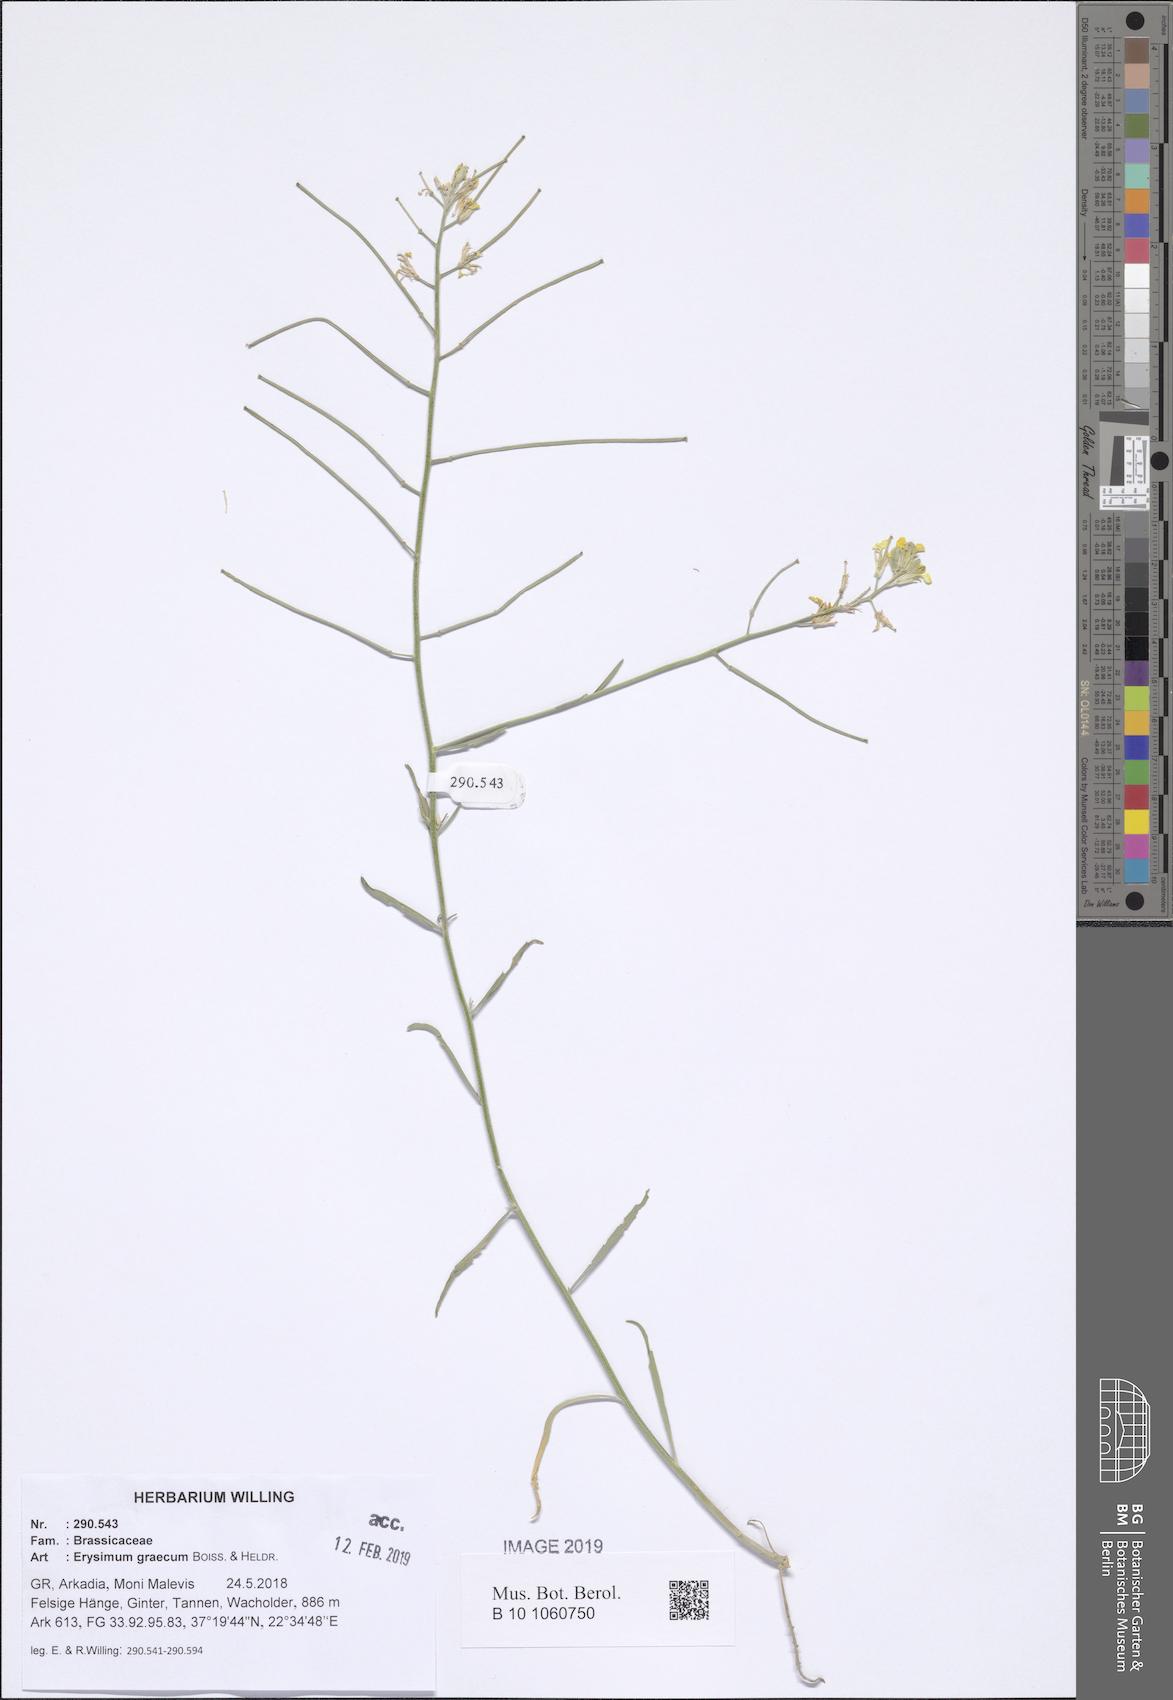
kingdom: Plantae
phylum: Tracheophyta
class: Magnoliopsida
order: Brassicales
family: Brassicaceae
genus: Erysimum
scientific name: Erysimum graecum
